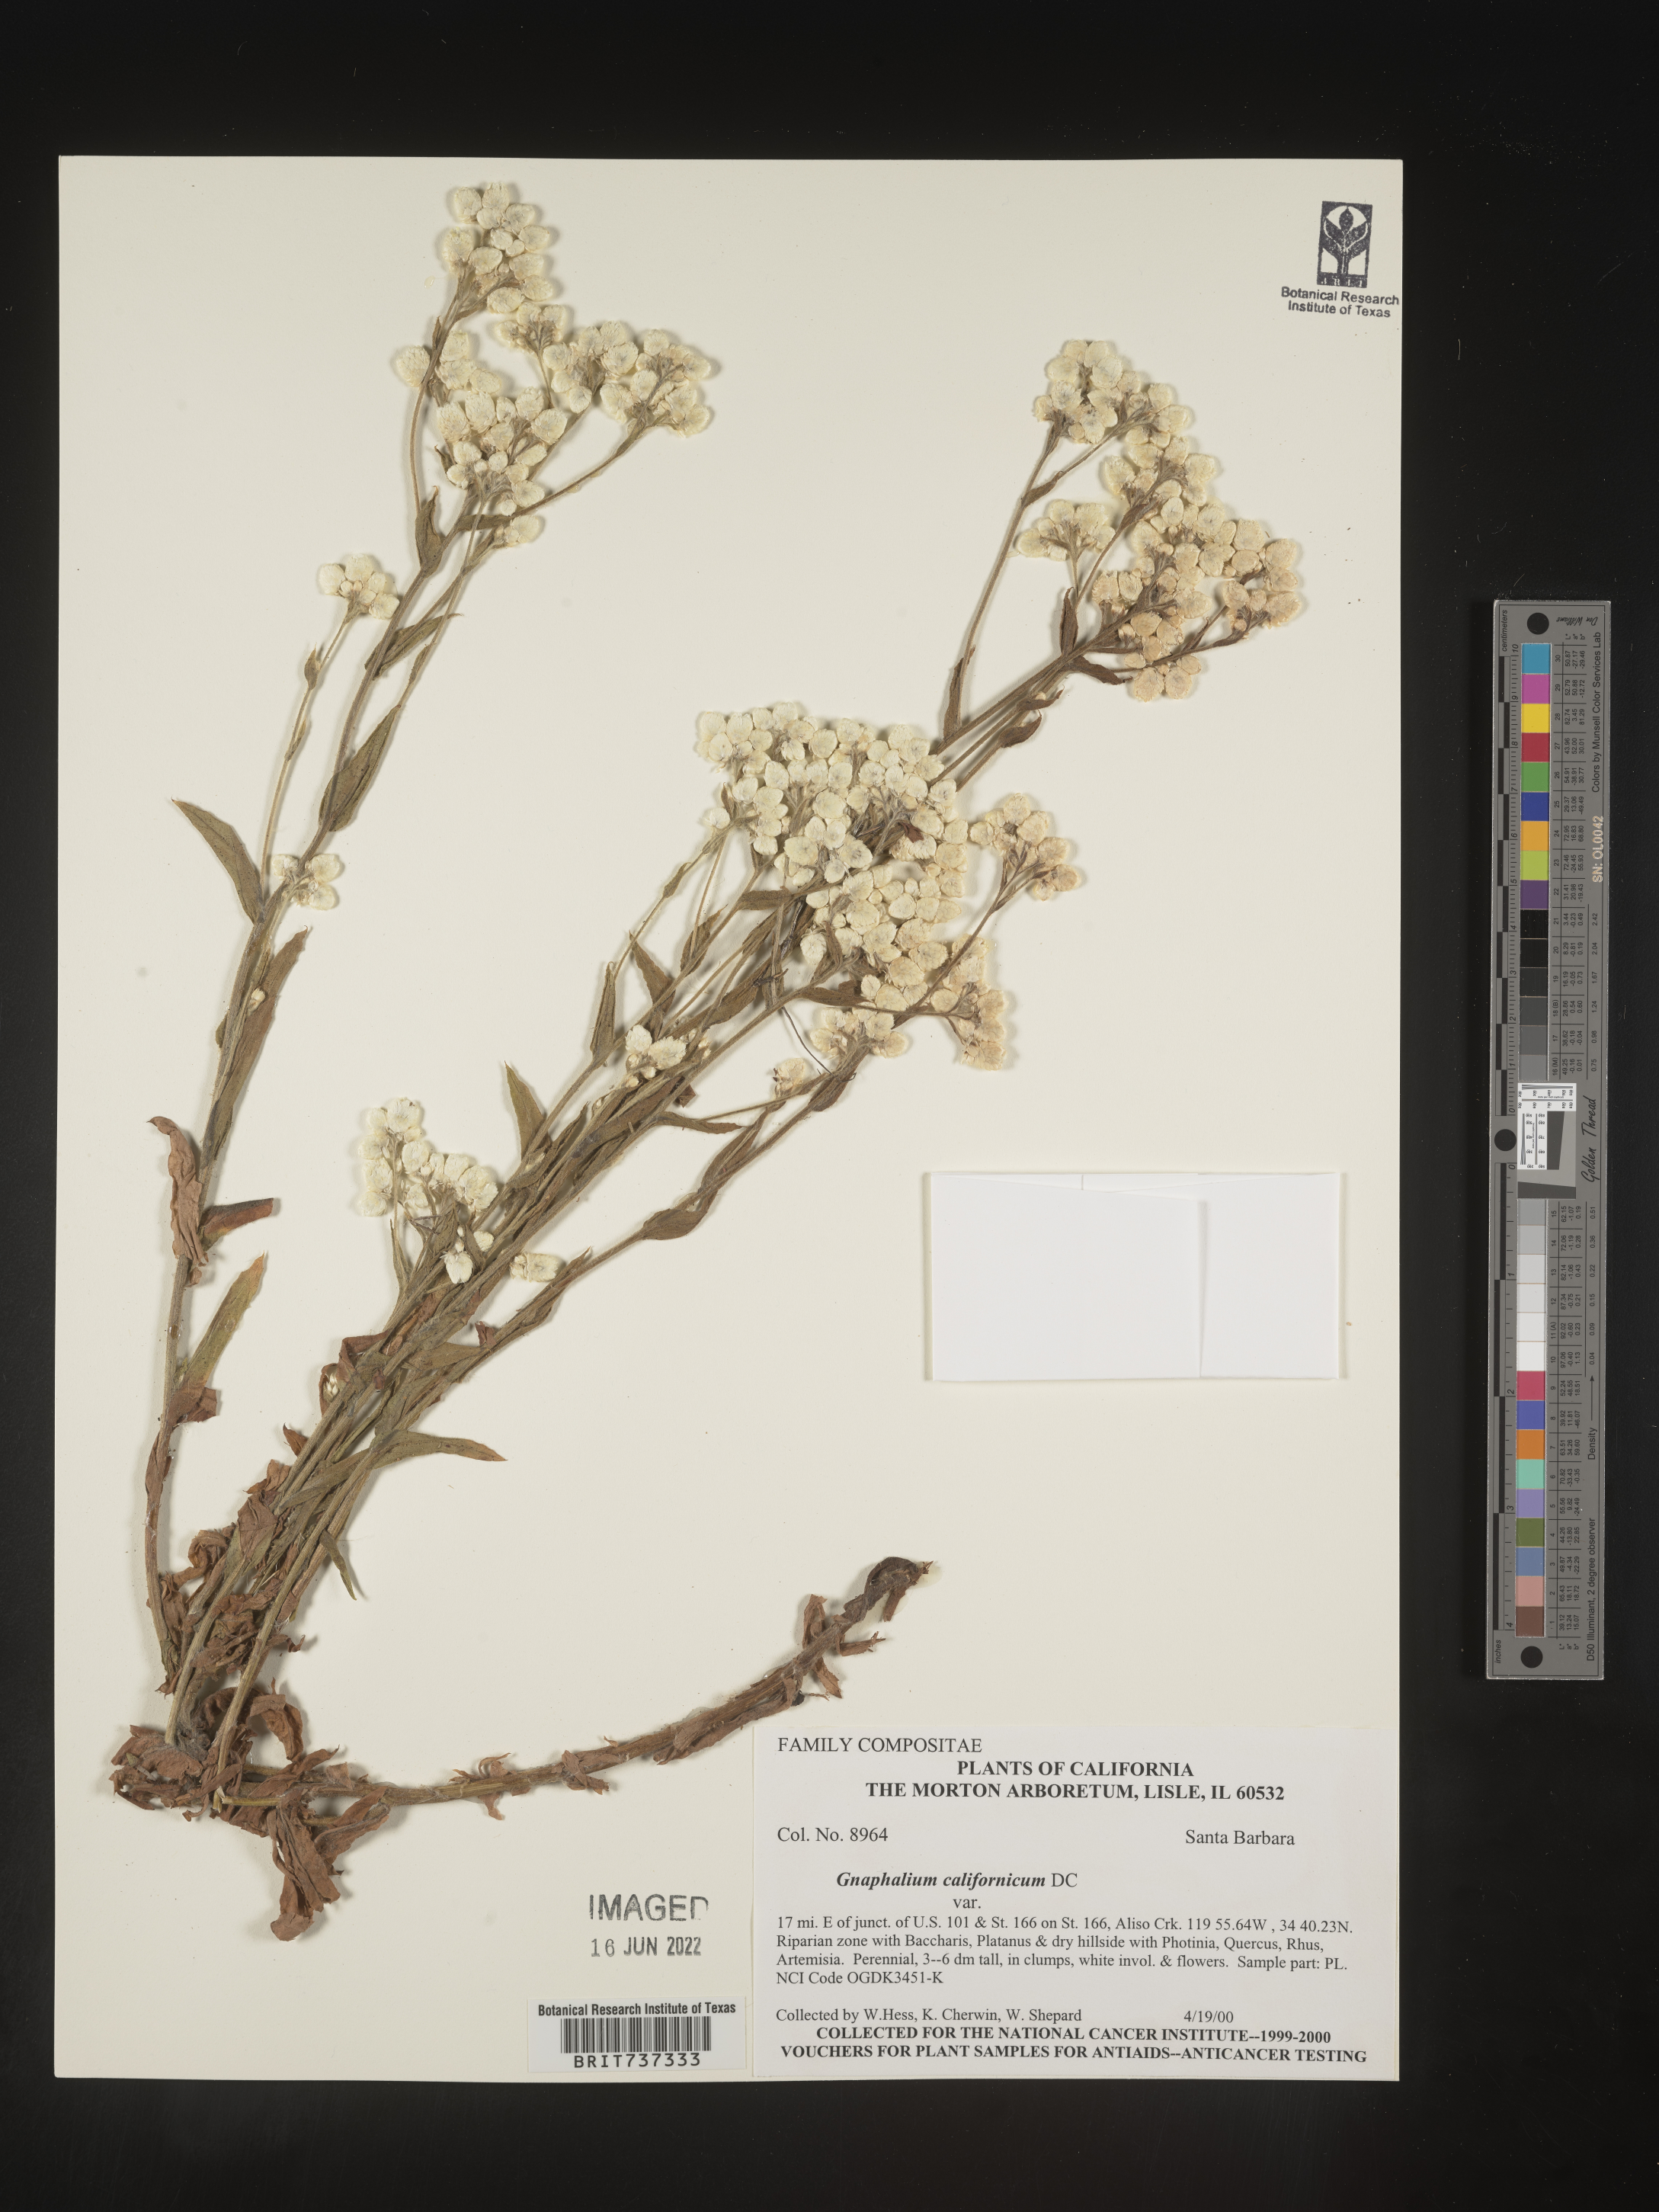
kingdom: Plantae
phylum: Tracheophyta
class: Magnoliopsida
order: Asterales
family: Asteraceae
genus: Pseudognaphalium
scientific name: Pseudognaphalium californicum
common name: California rabbit-tobacco
